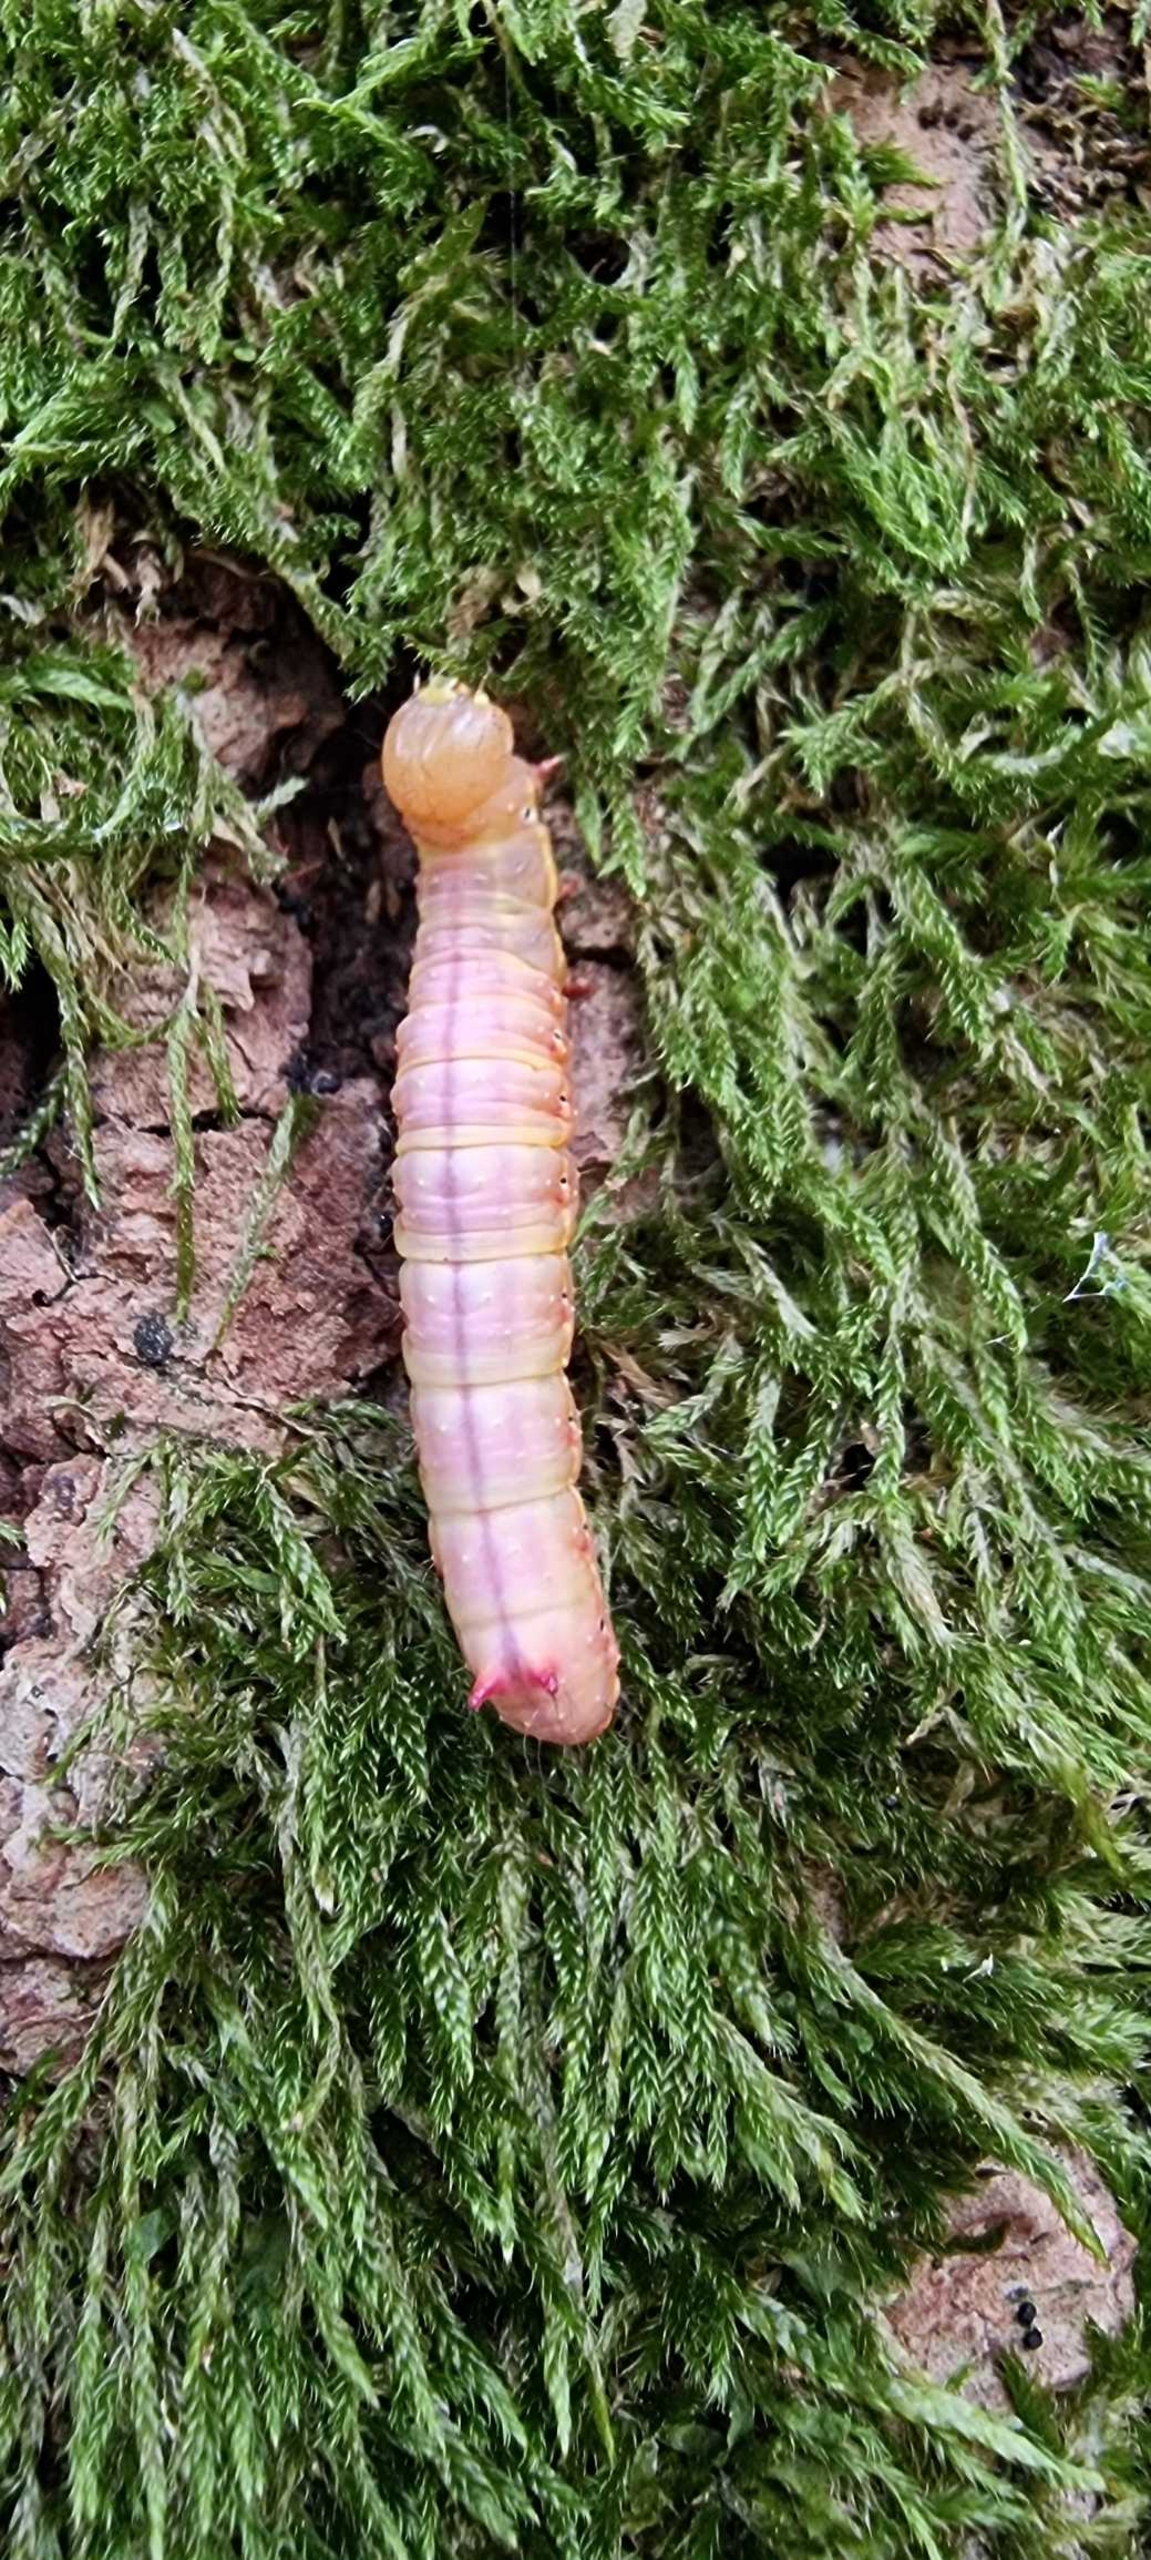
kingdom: Animalia
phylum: Arthropoda
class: Insecta
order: Lepidoptera
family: Notodontidae
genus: Ptilodon
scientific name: Ptilodon capucina
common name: Kamelspinder
